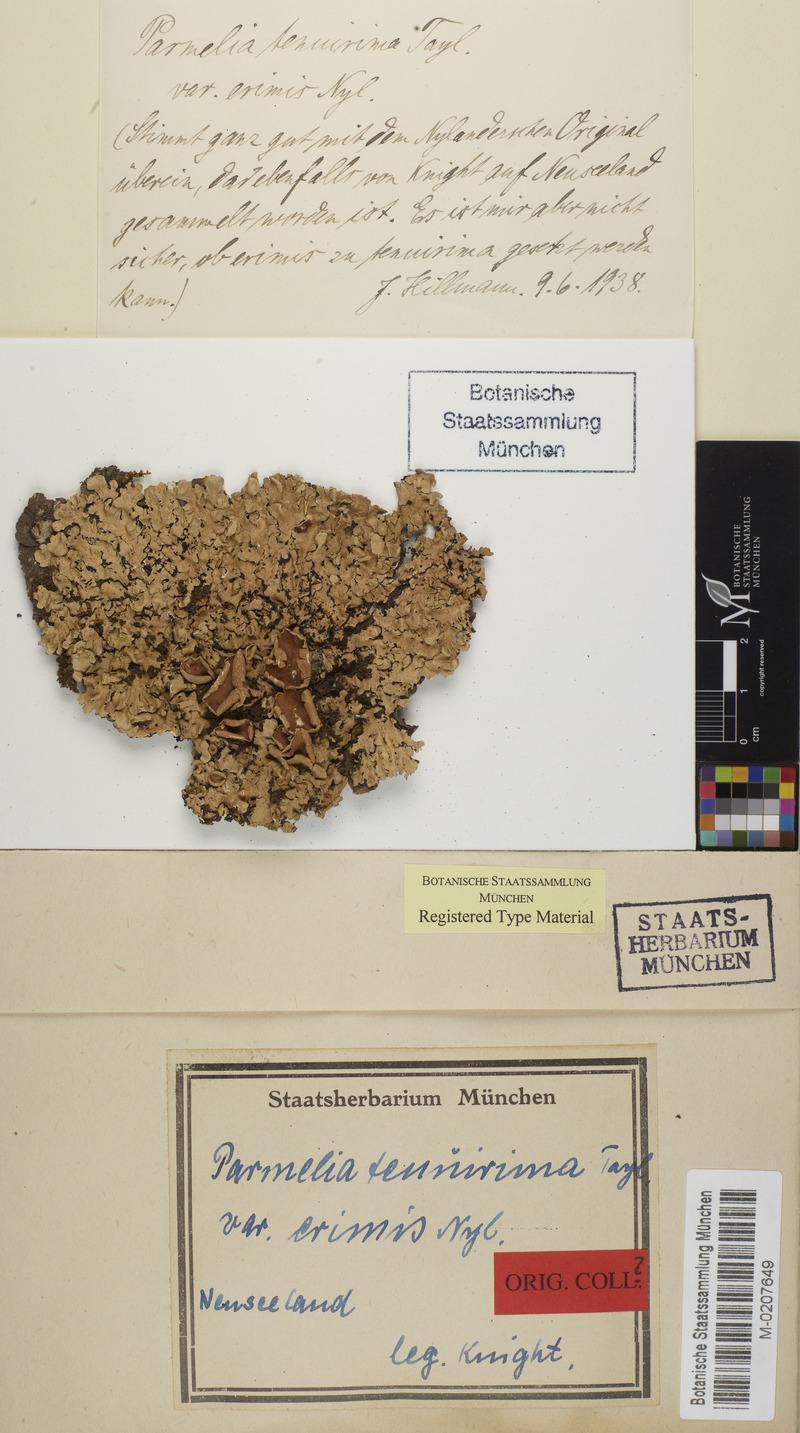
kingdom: Fungi
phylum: Ascomycota
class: Lecanoromycetes
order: Lecanorales
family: Parmeliaceae
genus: Notoparmelia
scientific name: Notoparmelia testacea
